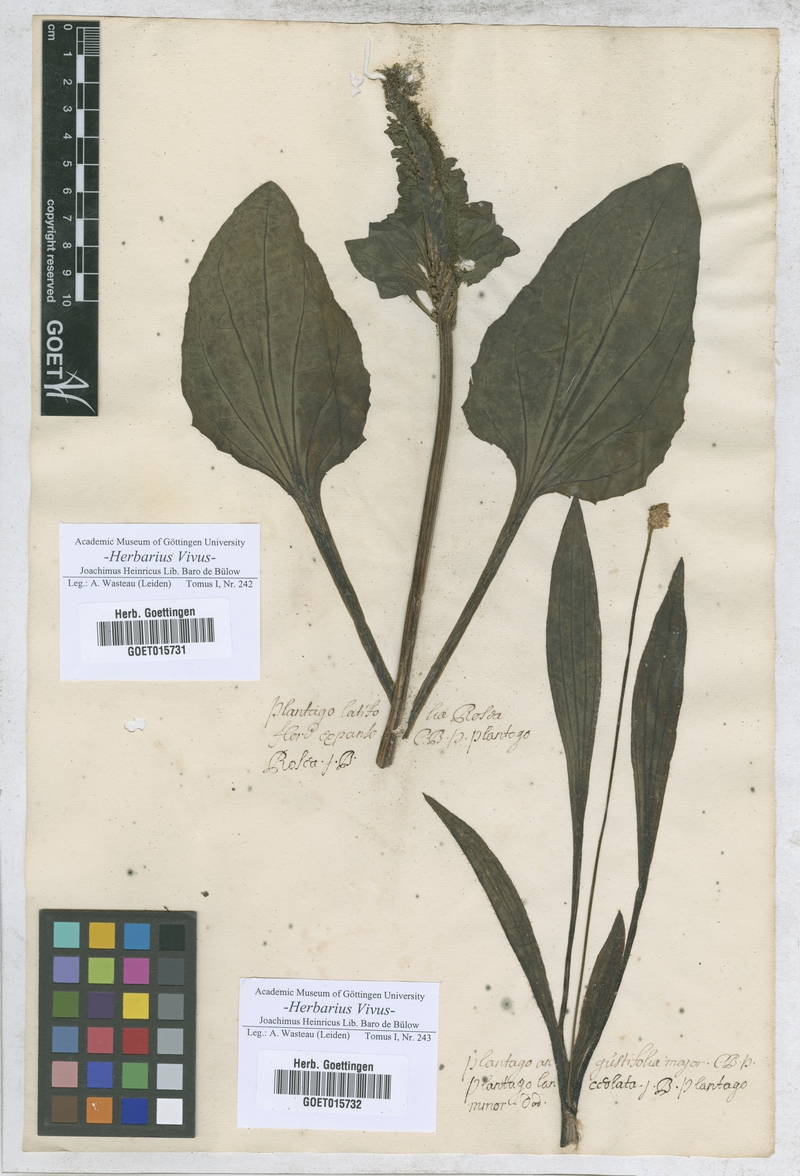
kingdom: Plantae
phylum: Tracheophyta
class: Magnoliopsida
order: Lamiales
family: Plantaginaceae
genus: Plantago
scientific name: Plantago major
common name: Common plantain
